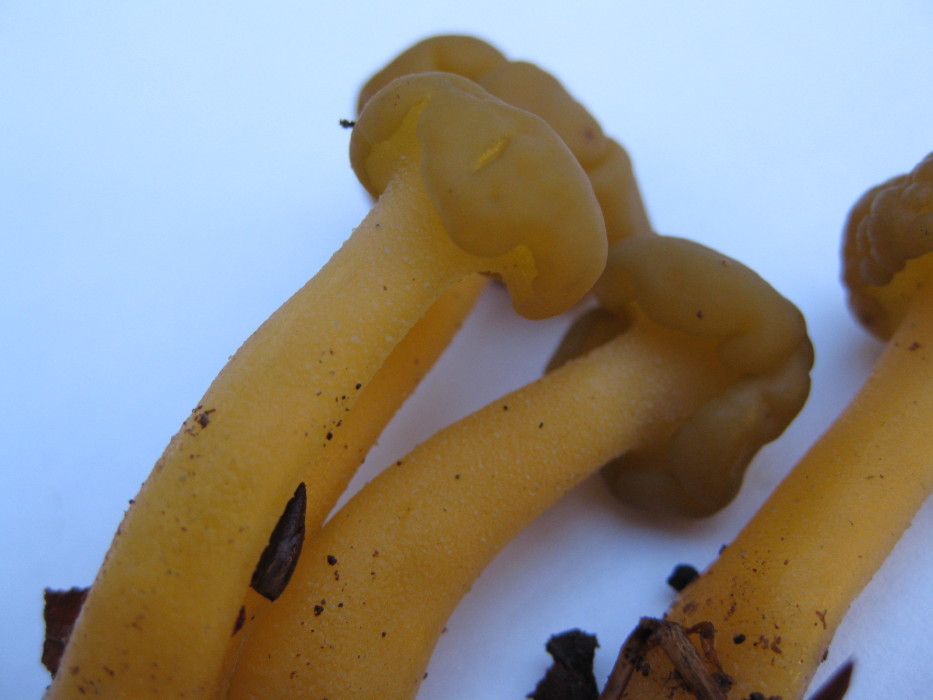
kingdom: Fungi
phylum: Ascomycota
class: Leotiomycetes
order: Leotiales
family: Leotiaceae
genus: Leotia
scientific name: Leotia lubrica
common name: ravsvamp
